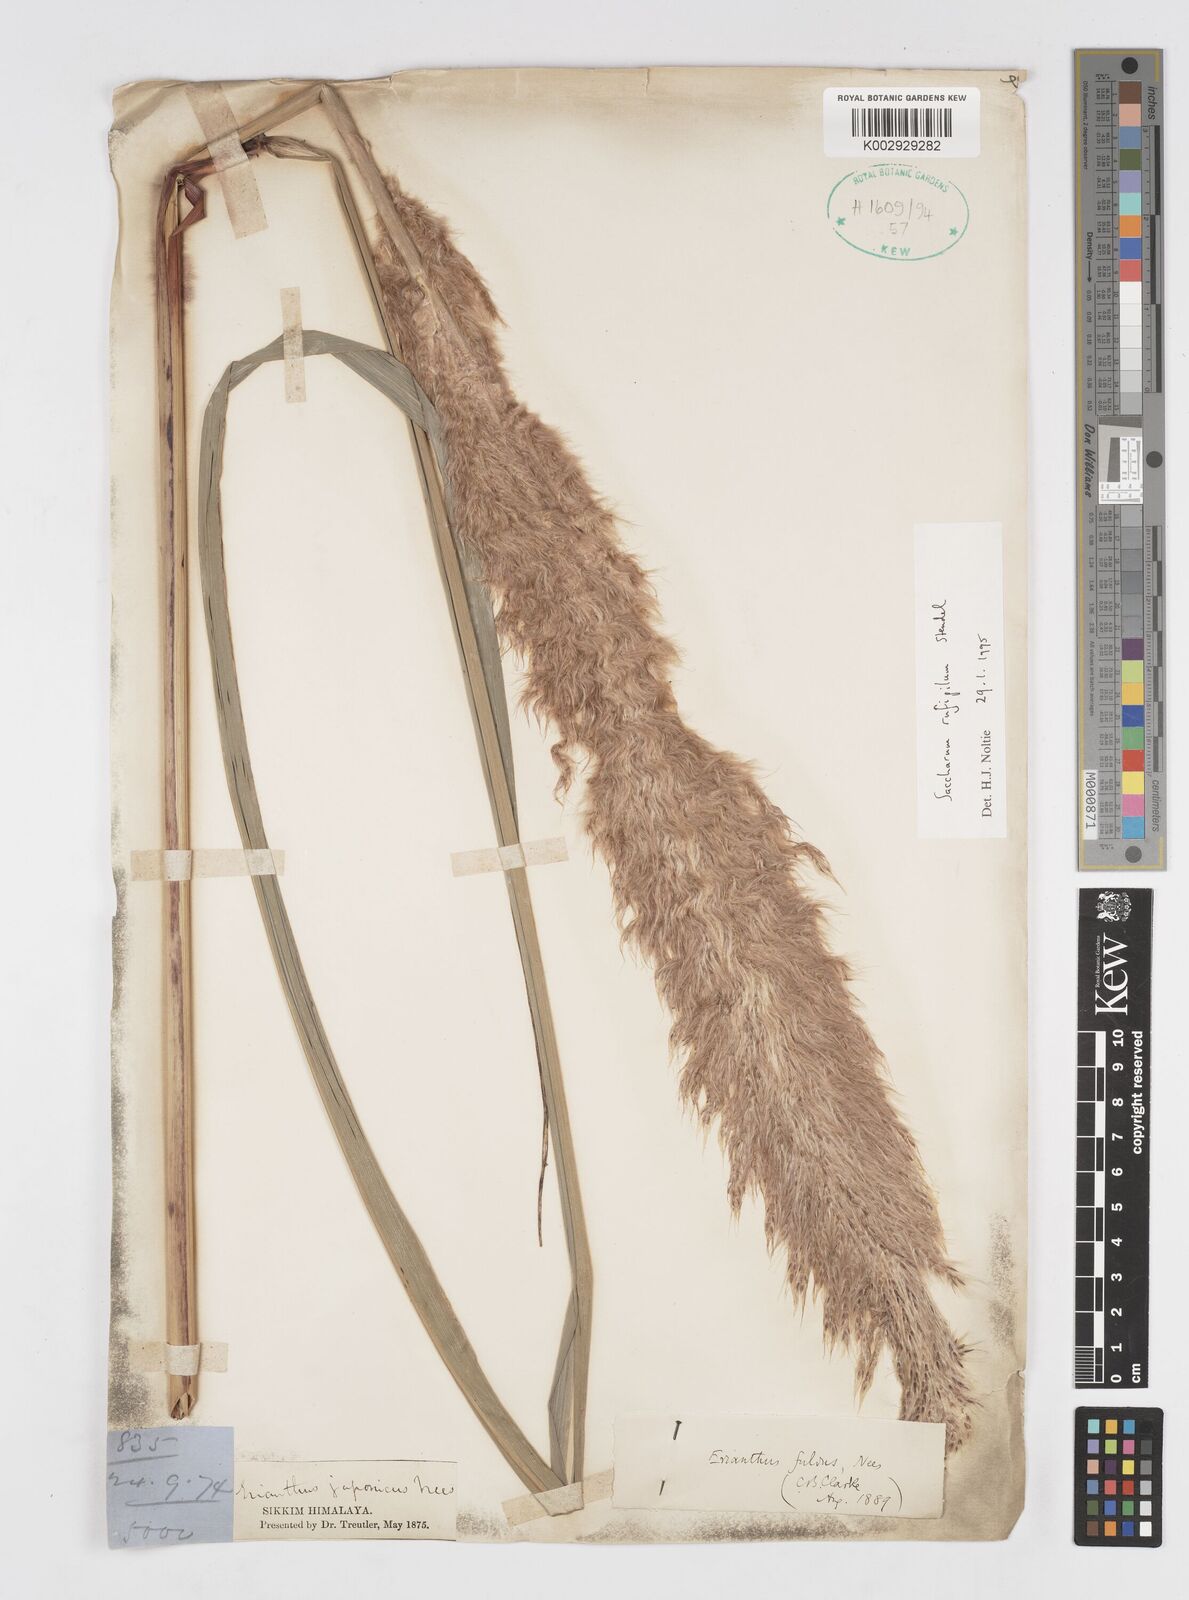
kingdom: Plantae
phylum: Tracheophyta
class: Liliopsida
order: Poales
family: Poaceae
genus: Tripidium
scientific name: Tripidium rufipilum
